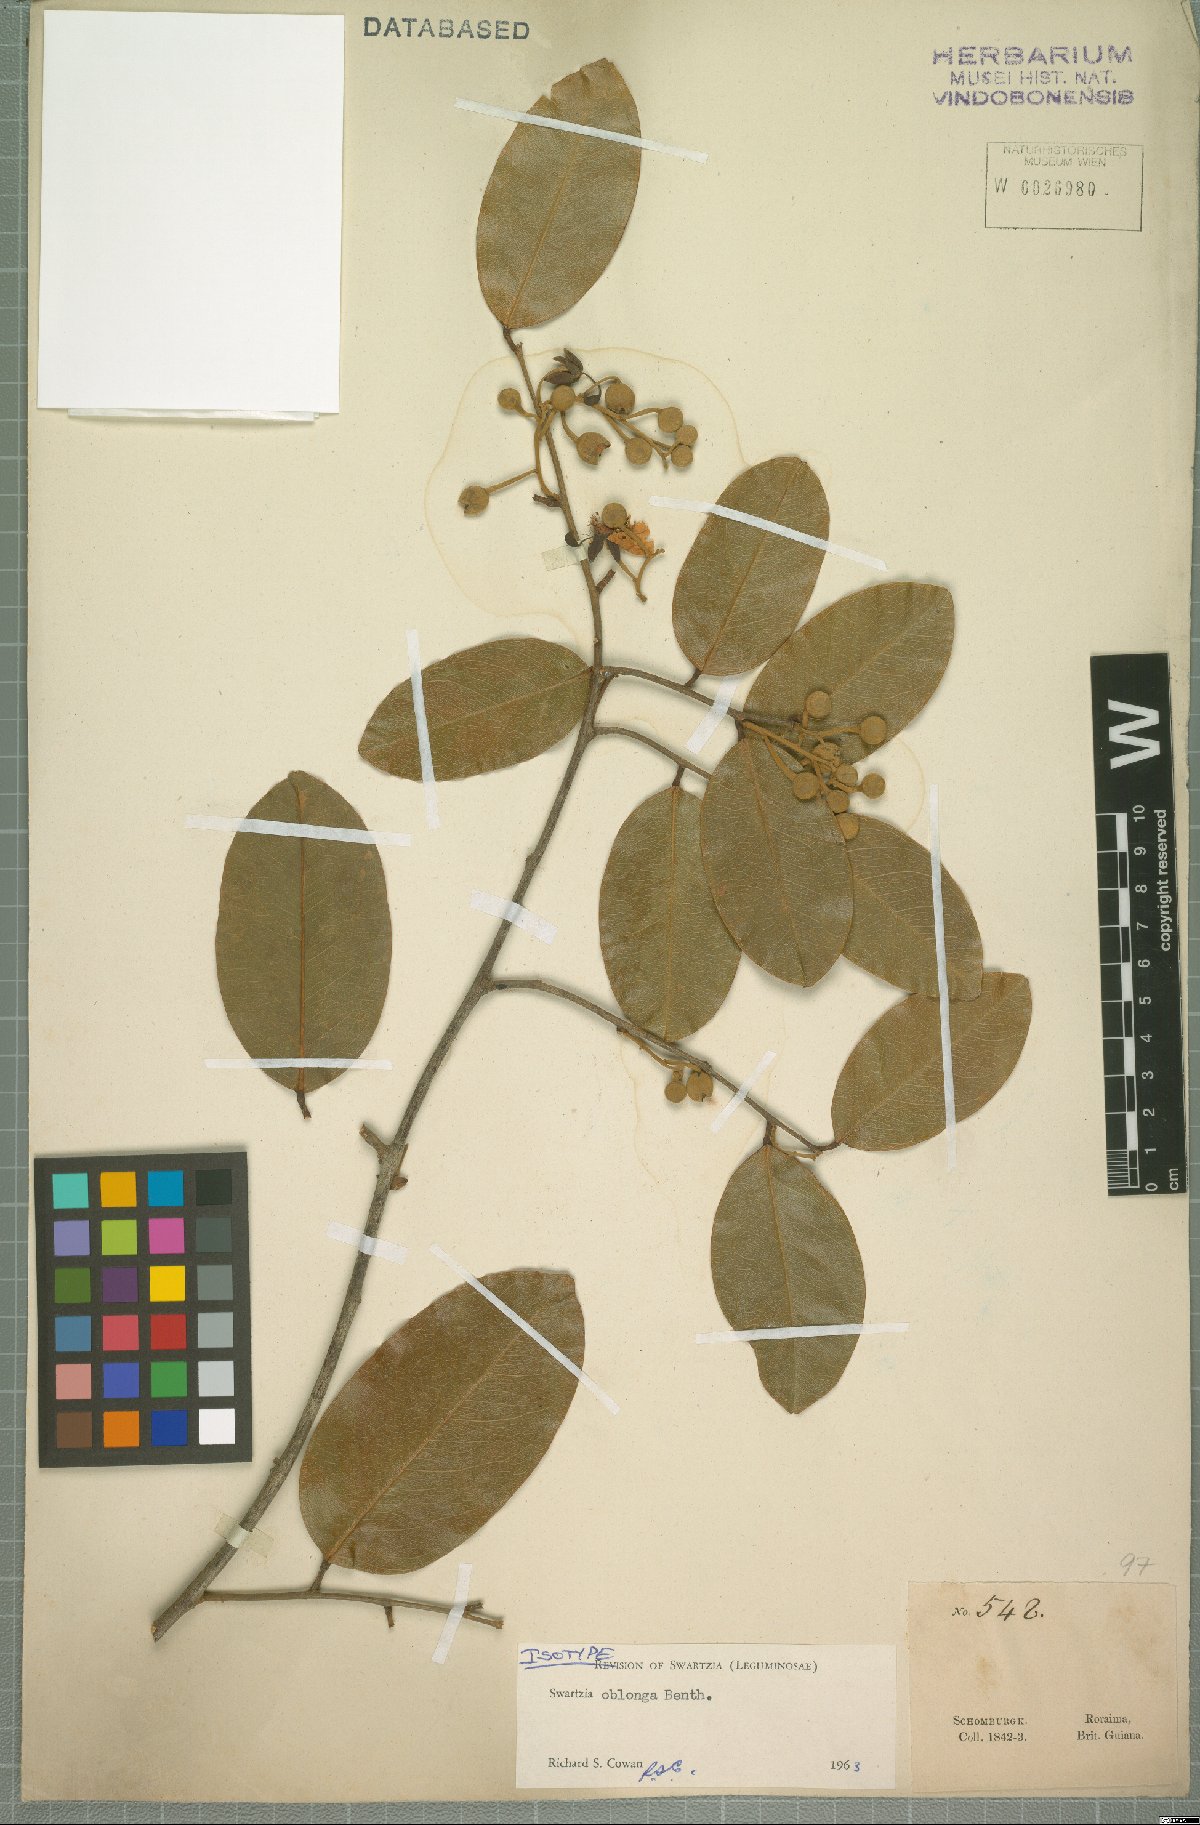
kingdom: Plantae
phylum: Tracheophyta
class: Magnoliopsida
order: Fabales
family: Fabaceae
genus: Swartzia
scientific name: Swartzia oblonga
